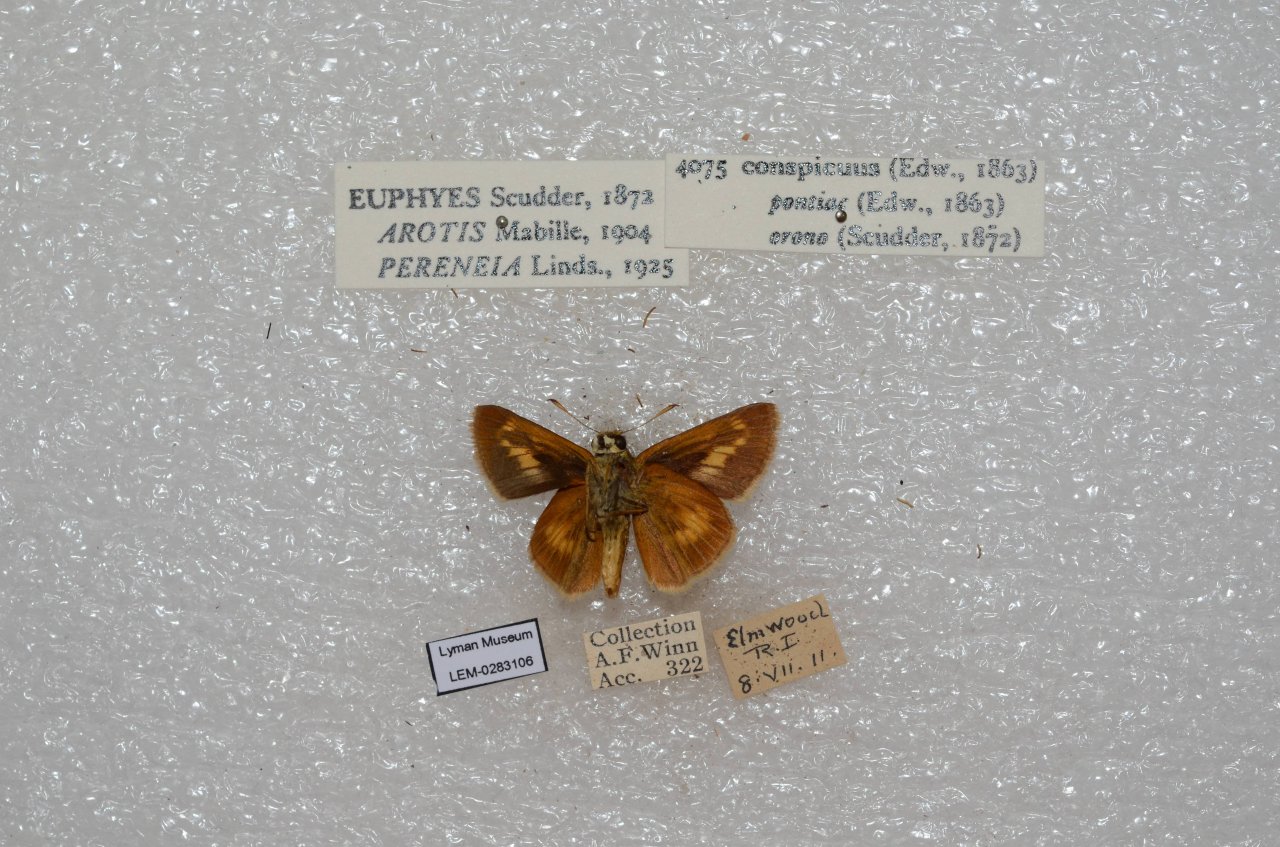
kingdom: Animalia
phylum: Arthropoda
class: Insecta
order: Lepidoptera
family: Hesperiidae
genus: Euphyes
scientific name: Euphyes conspicua
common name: Black Dash
